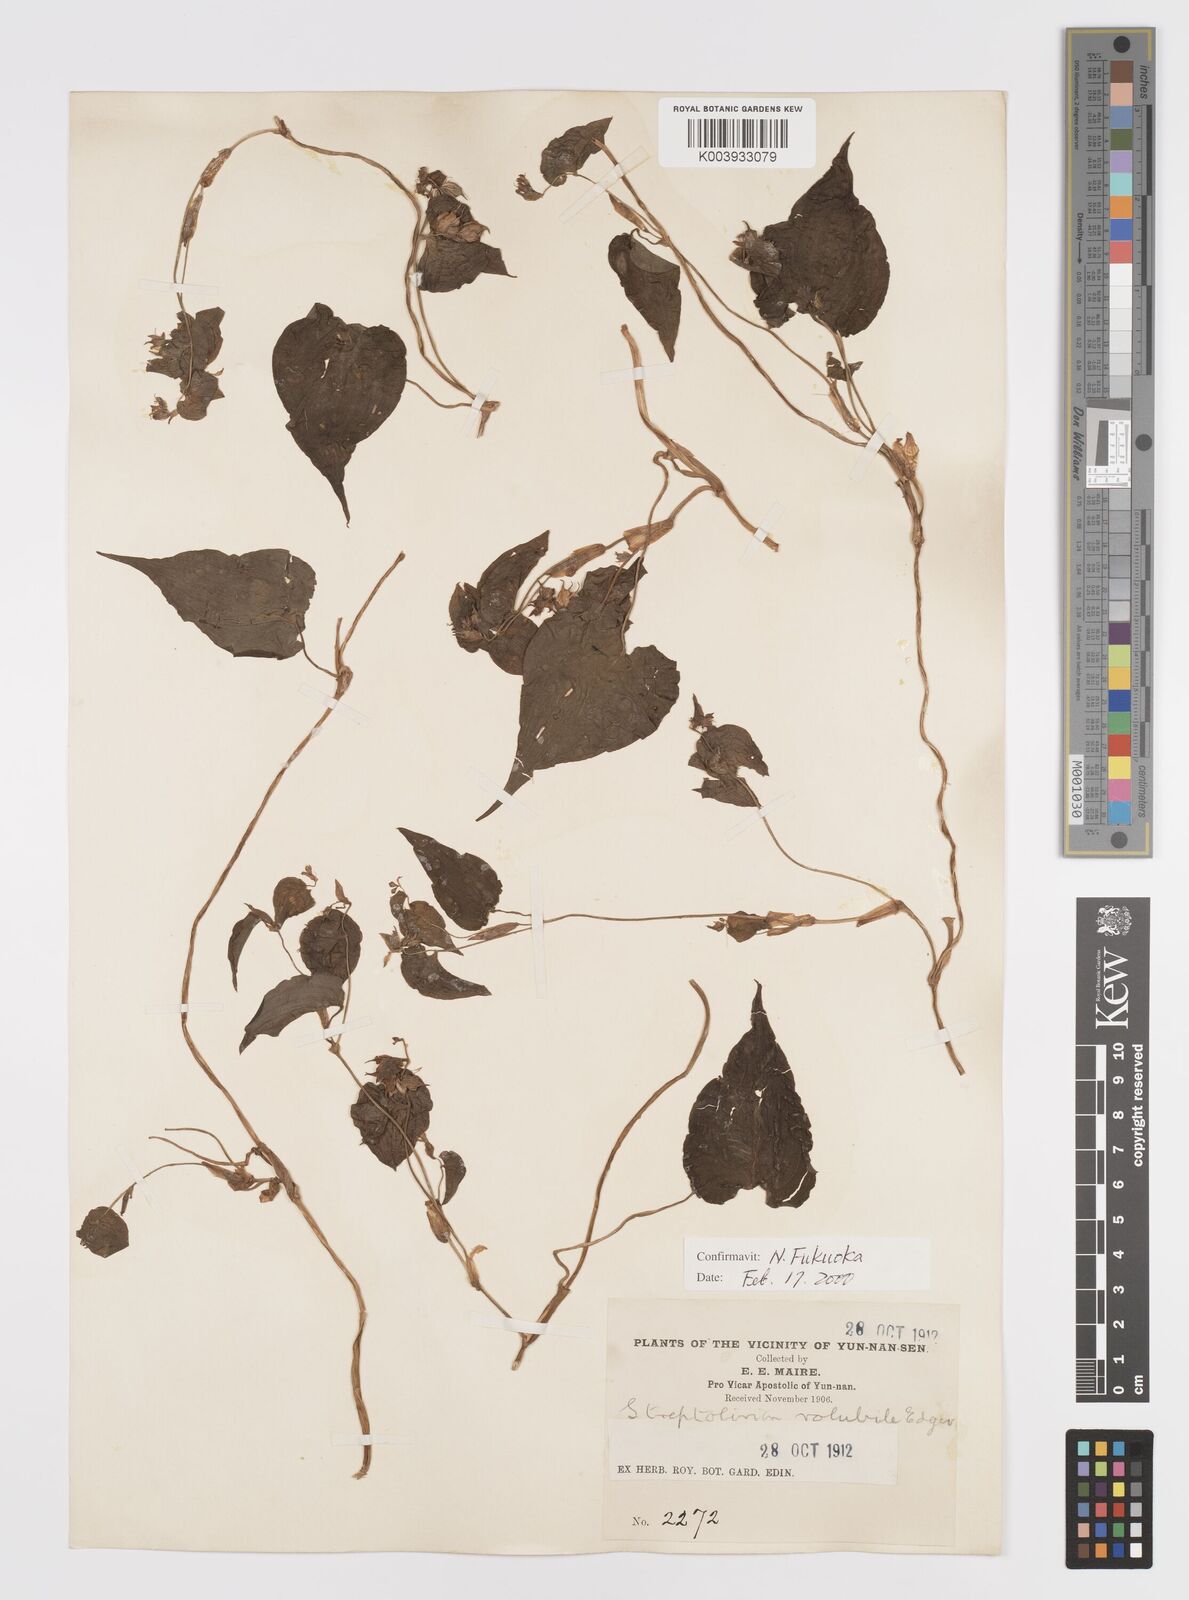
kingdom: Plantae
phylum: Tracheophyta
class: Liliopsida
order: Commelinales
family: Commelinaceae
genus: Streptolirion
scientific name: Streptolirion volubile
